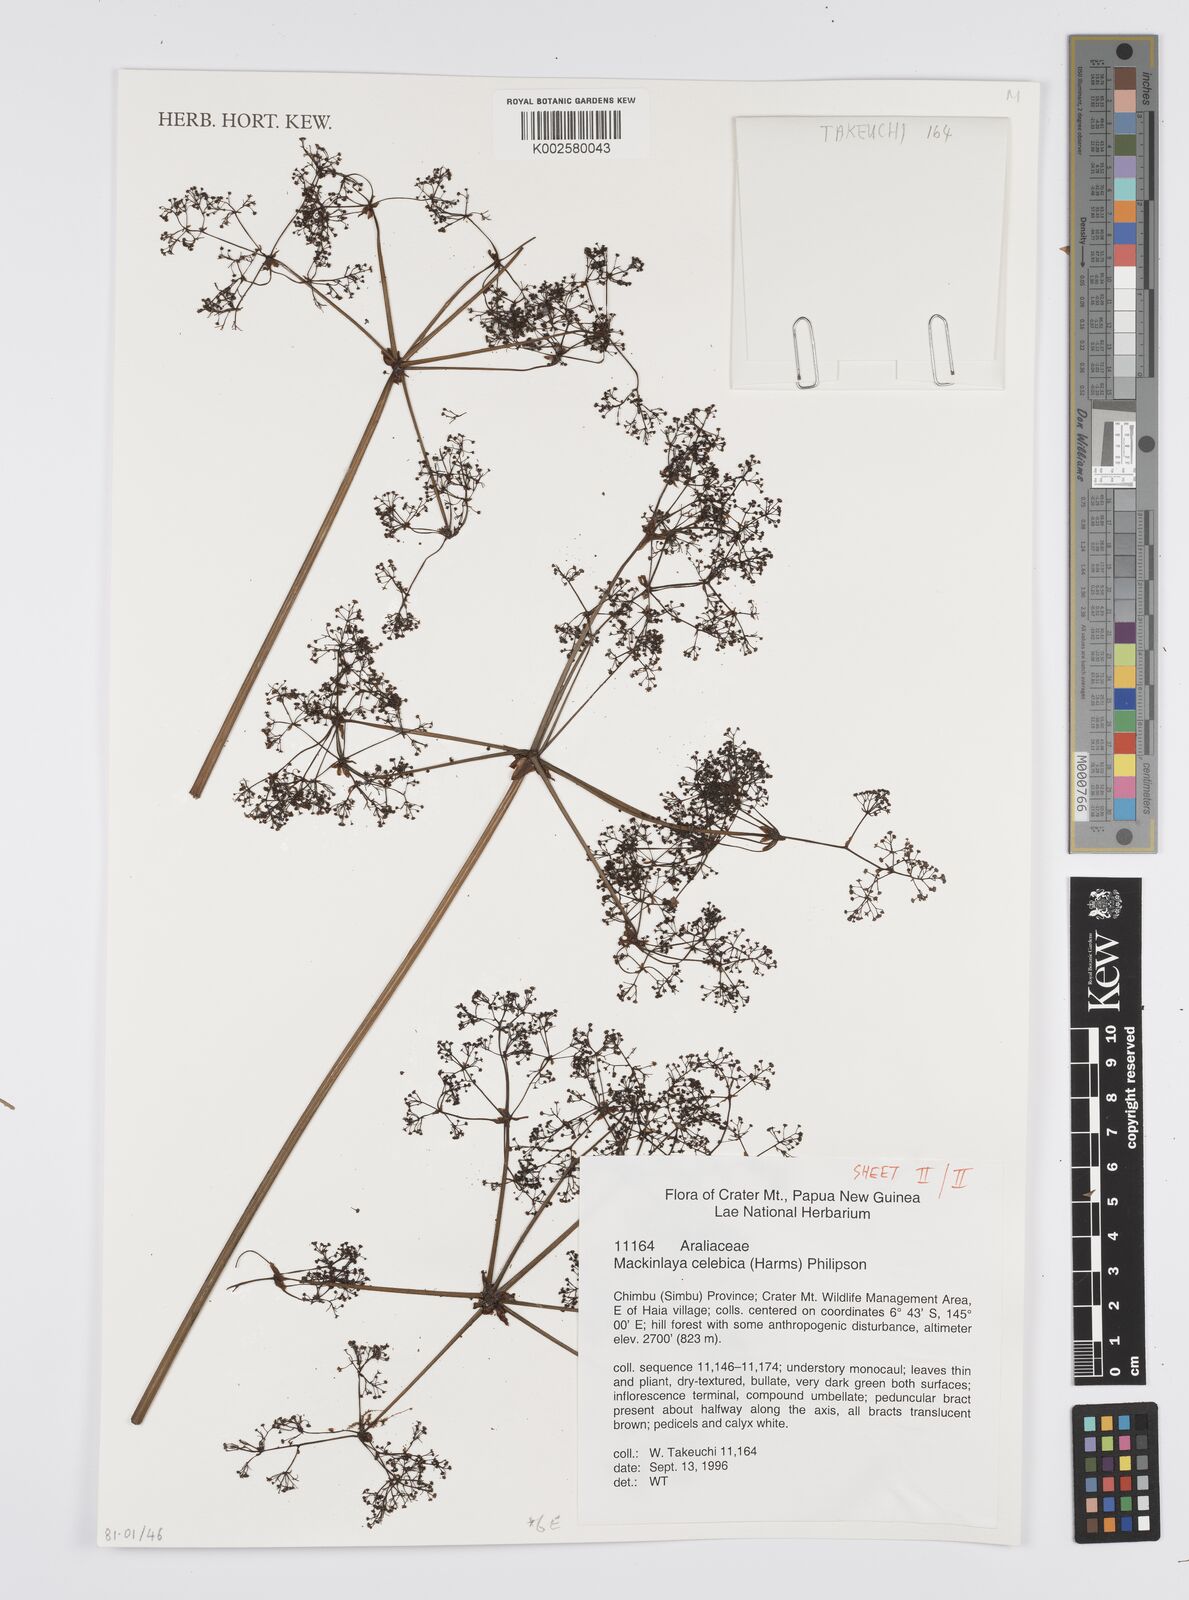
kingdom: Plantae
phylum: Tracheophyta
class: Magnoliopsida
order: Apiales
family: Apiaceae
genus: Mackinlaya
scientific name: Mackinlaya celebica
